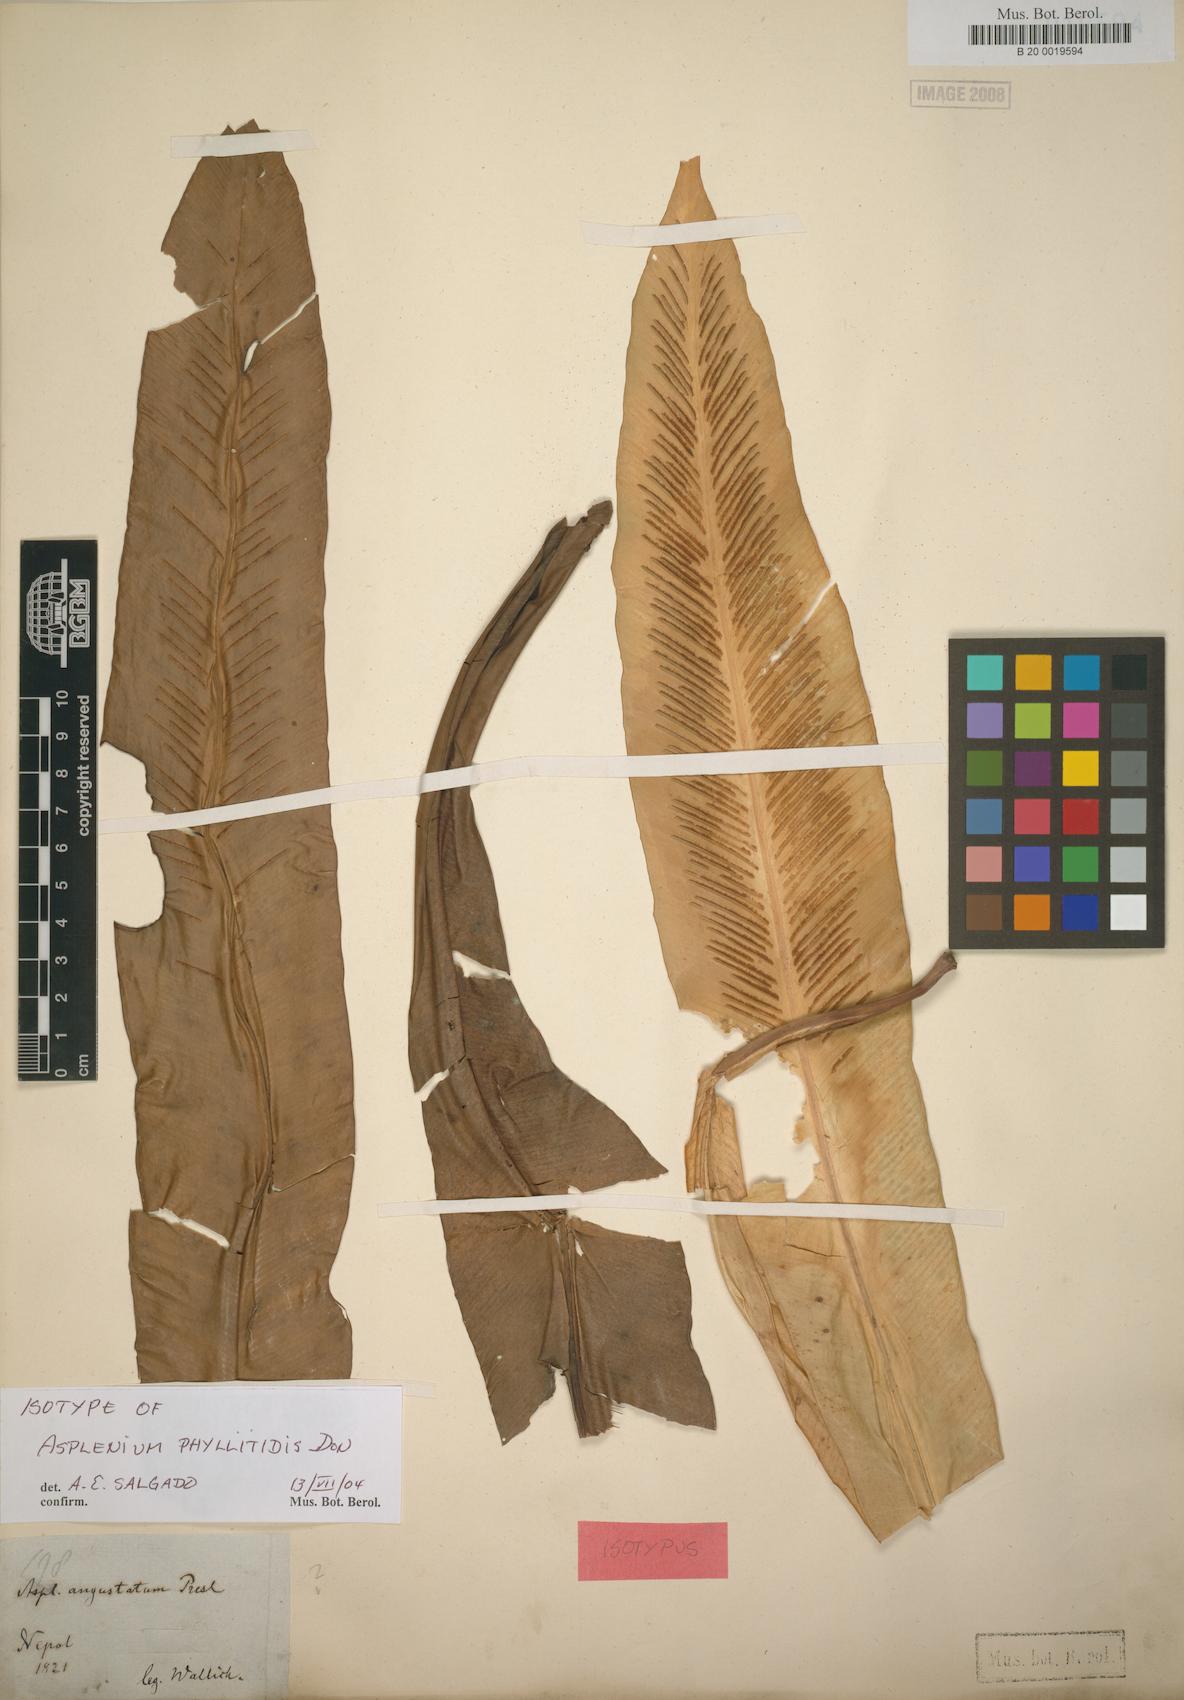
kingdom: Plantae
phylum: Tracheophyta
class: Polypodiopsida
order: Polypodiales
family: Aspleniaceae
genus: Asplenium
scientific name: Asplenium phyllitidis
